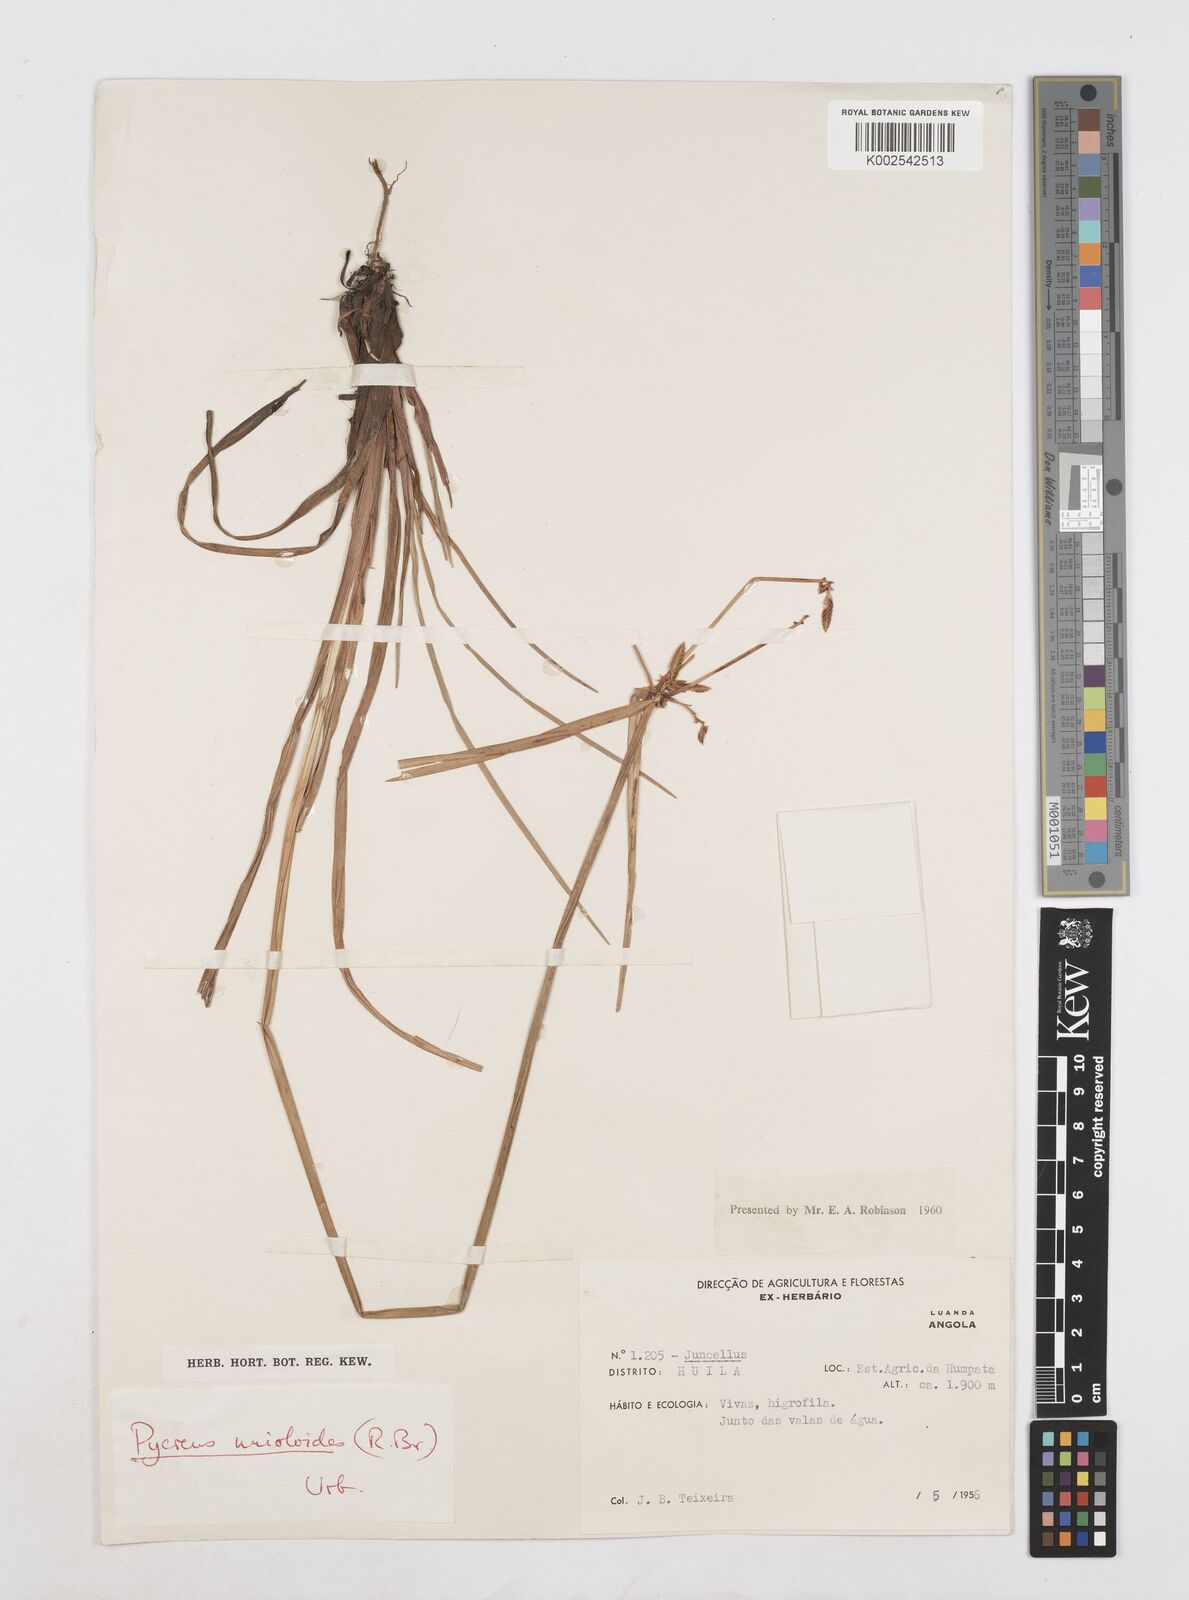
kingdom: Plantae
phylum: Tracheophyta
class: Liliopsida
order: Poales
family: Cyperaceae
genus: Cyperus
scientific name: Cyperus unioloides
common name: Uniola flatsedge
